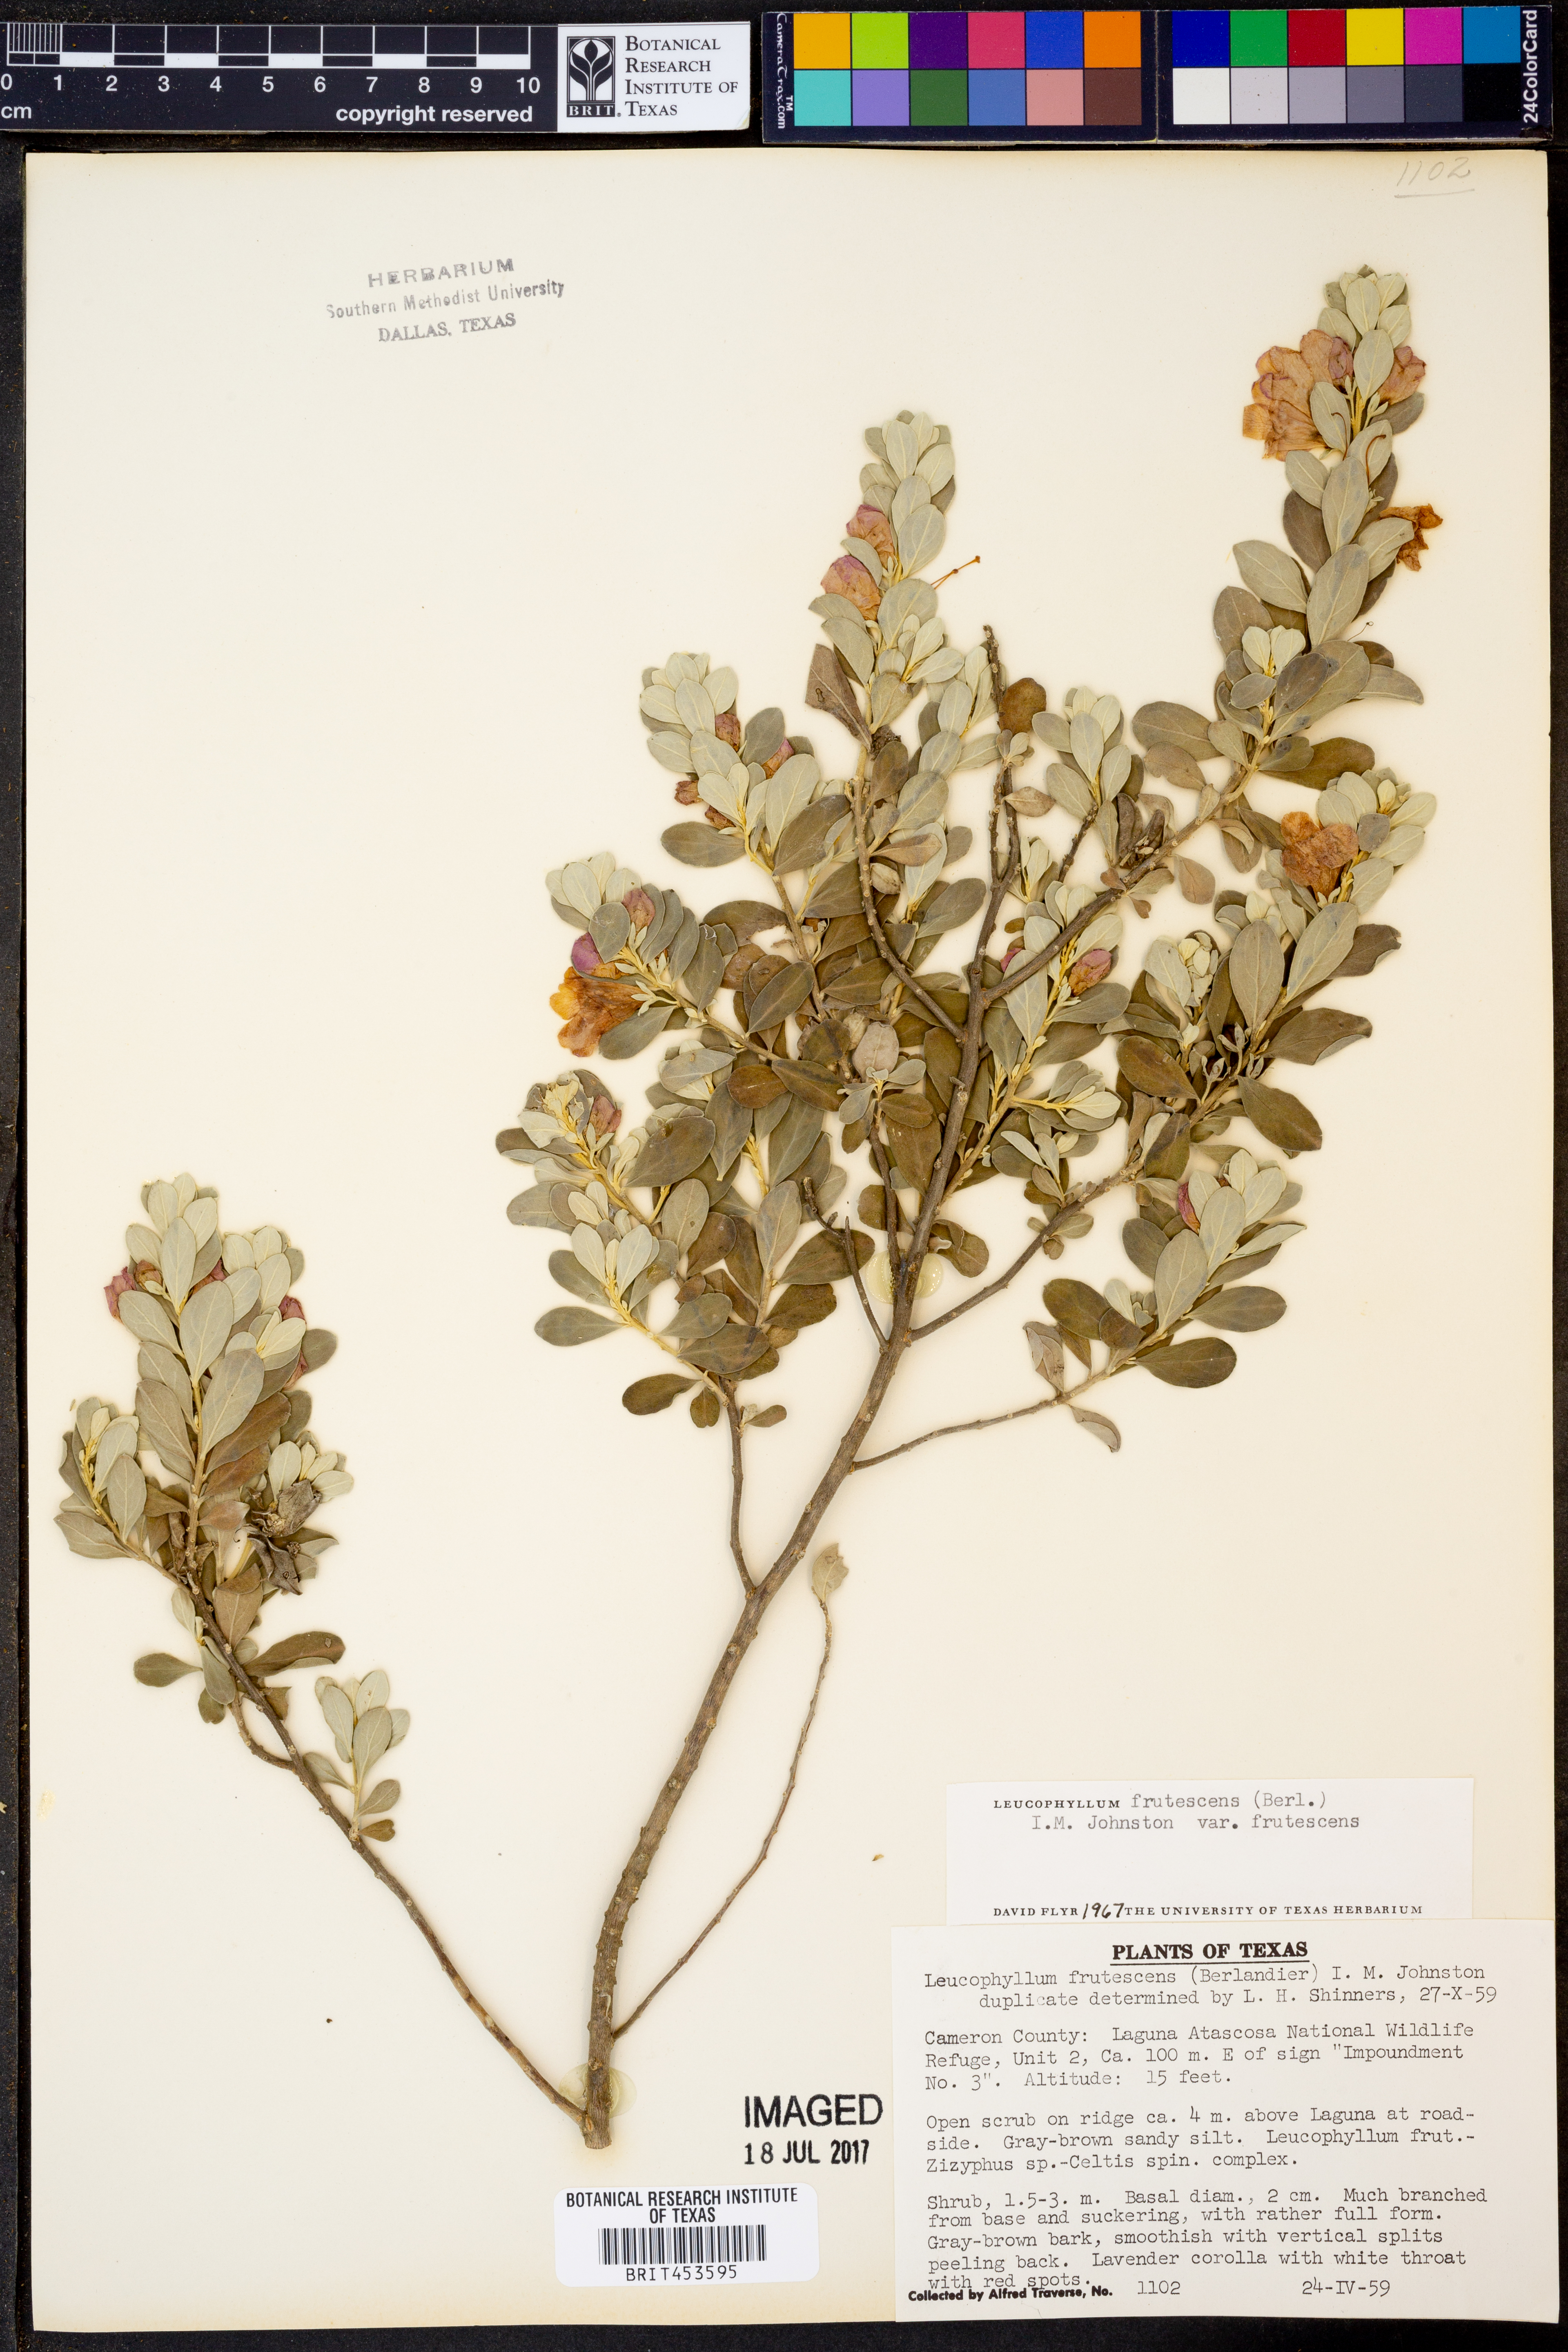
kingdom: Plantae
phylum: Tracheophyta
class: Magnoliopsida
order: Lamiales
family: Scrophulariaceae
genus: Leucophyllum
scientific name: Leucophyllum frutescens
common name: Texas silverleaf
